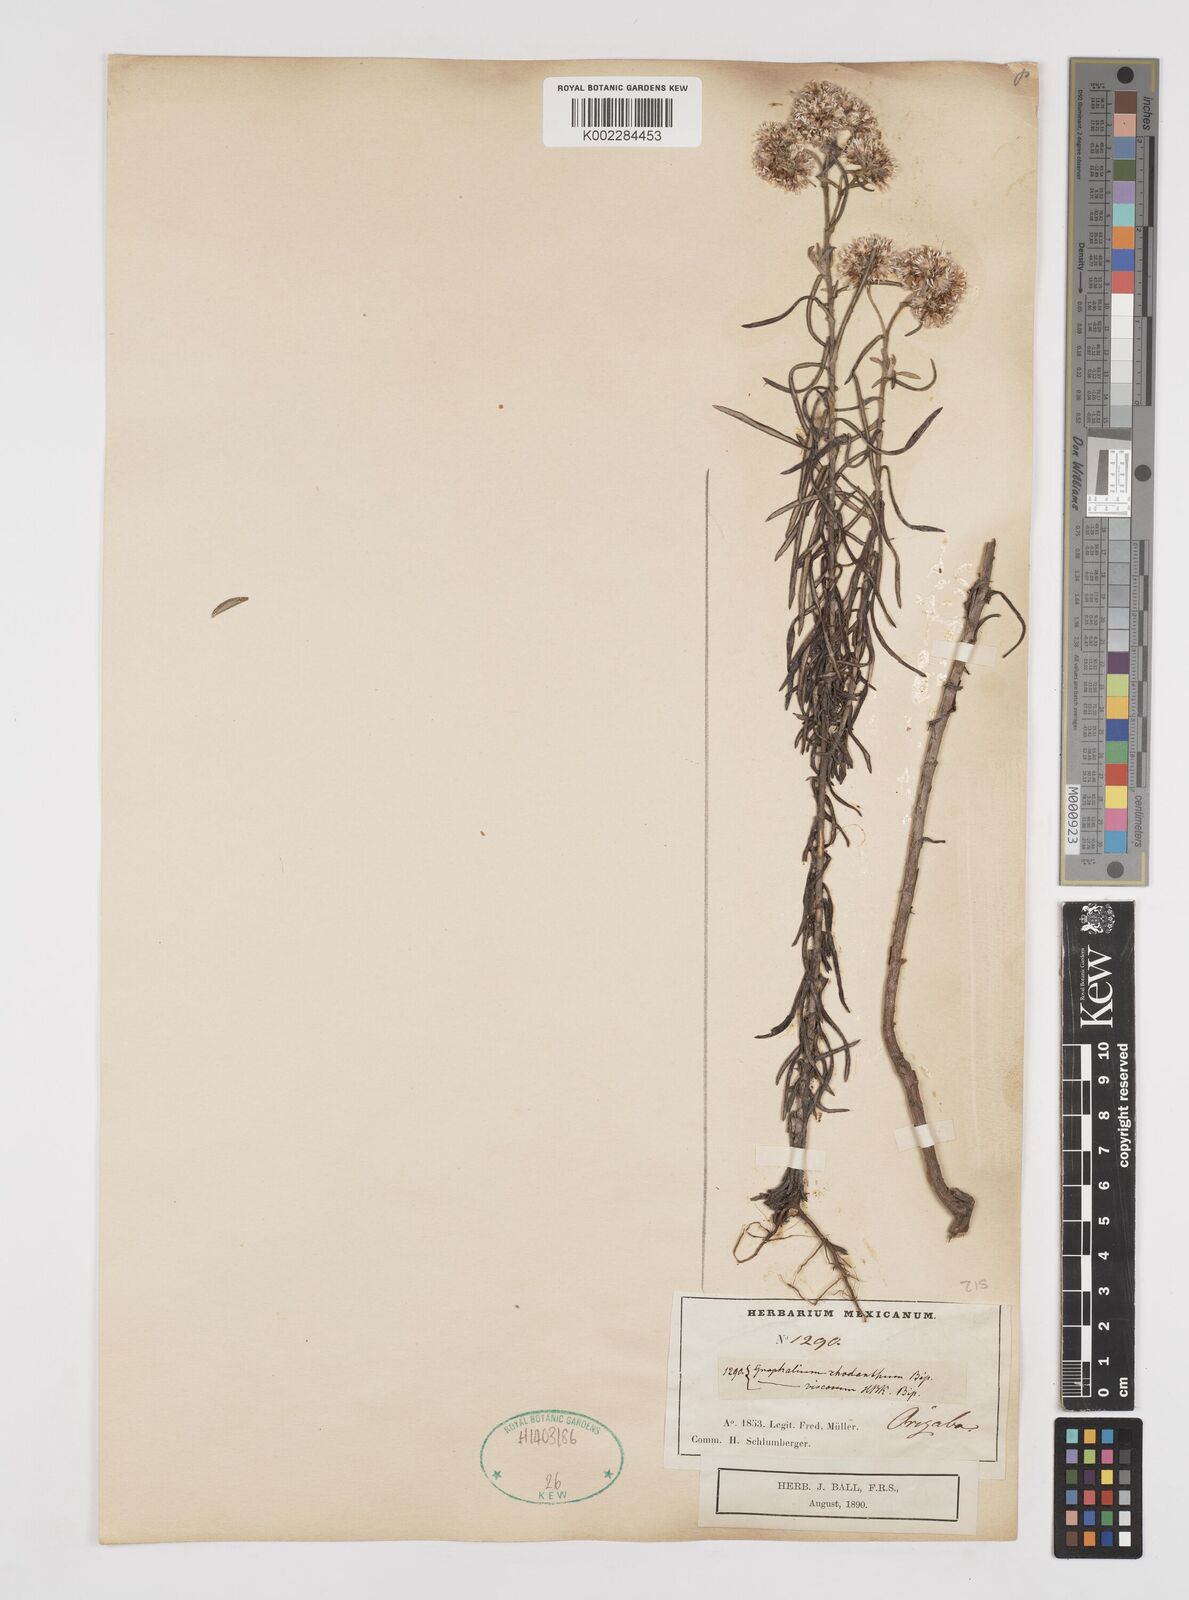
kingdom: Plantae
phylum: Tracheophyta
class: Magnoliopsida
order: Asterales
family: Asteraceae
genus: Gnaphaliothamnus
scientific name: Gnaphaliothamnus salicifolius
